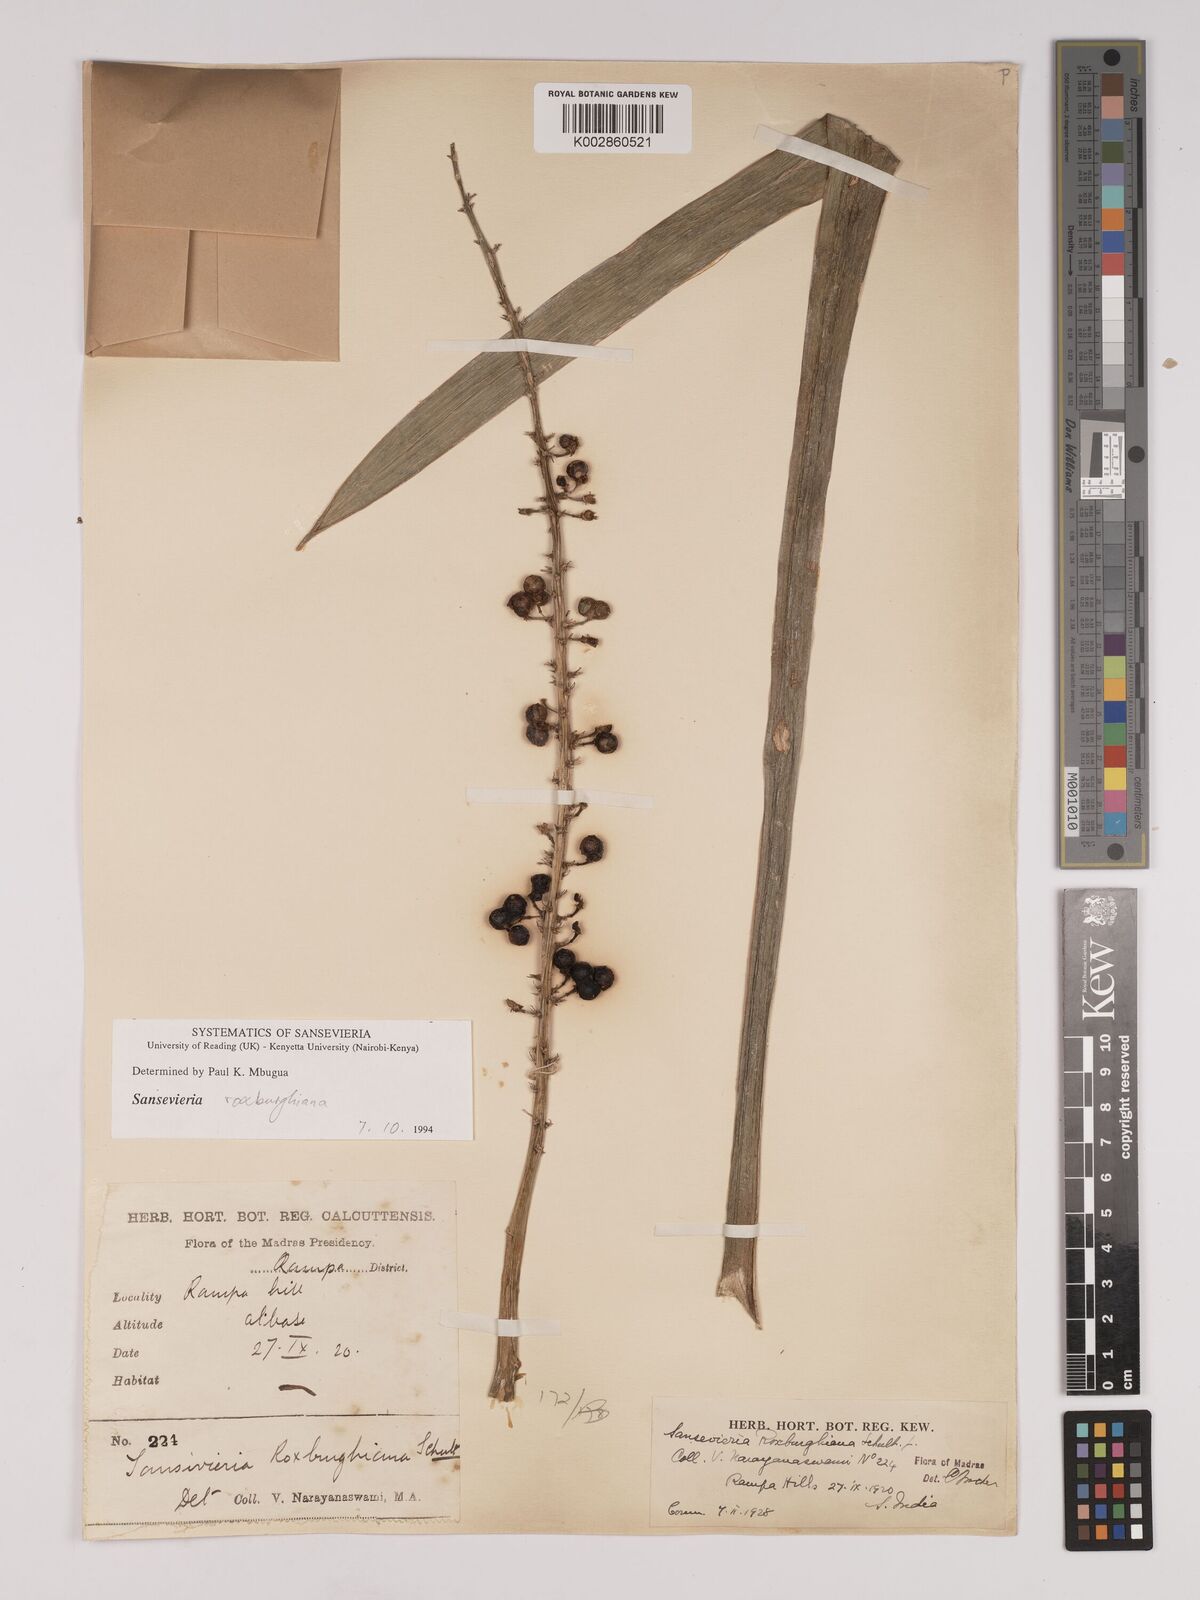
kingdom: Plantae
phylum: Tracheophyta
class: Liliopsida
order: Asparagales
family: Asparagaceae
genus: Dracaena
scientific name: Dracaena roxburghiana
